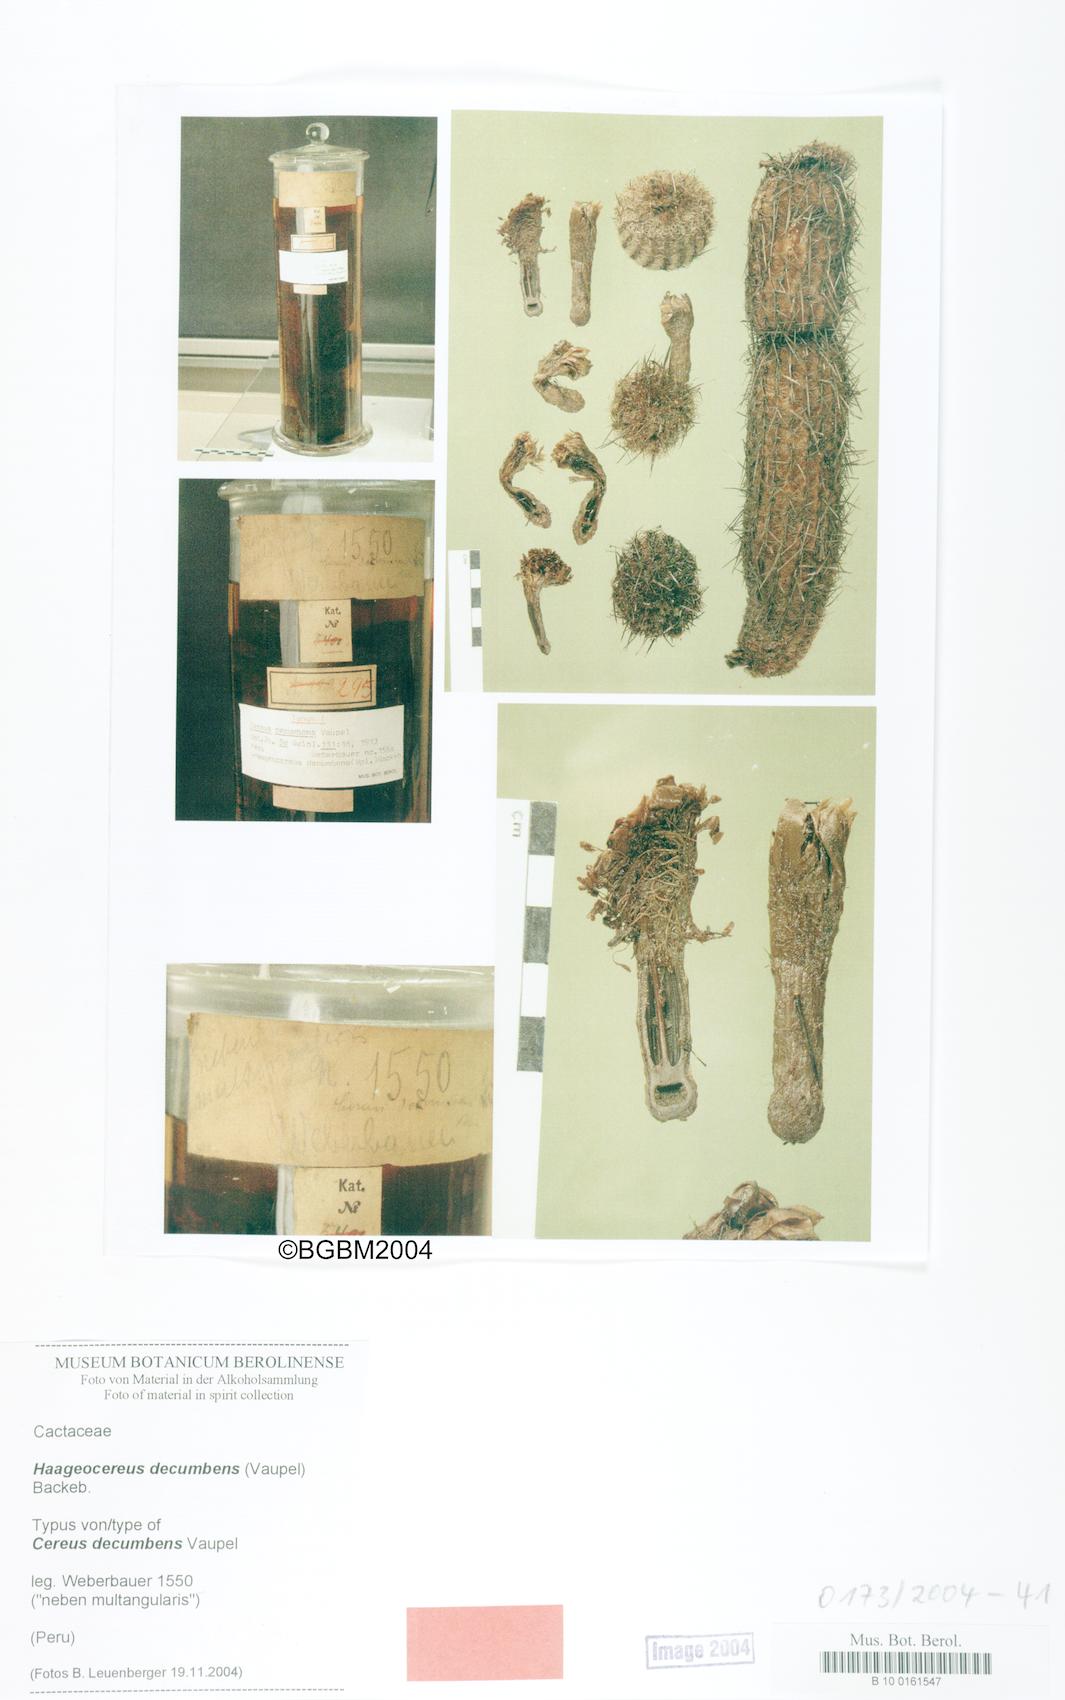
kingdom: Plantae
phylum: Tracheophyta
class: Magnoliopsida
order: Caryophyllales
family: Cactaceae
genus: Haageocereus
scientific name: Haageocereus decumbens
